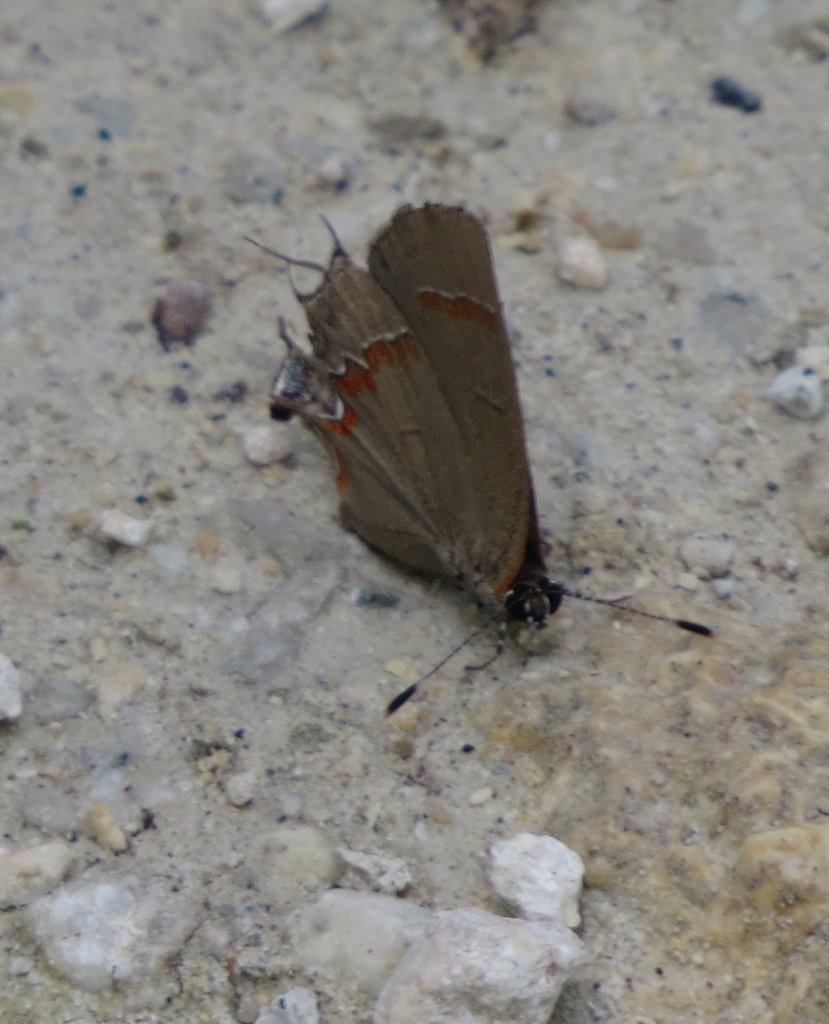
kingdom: Animalia
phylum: Arthropoda
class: Insecta
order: Lepidoptera
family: Lycaenidae
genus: Calycopis
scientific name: Calycopis cecrops
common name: Red-banded Hairstreak
